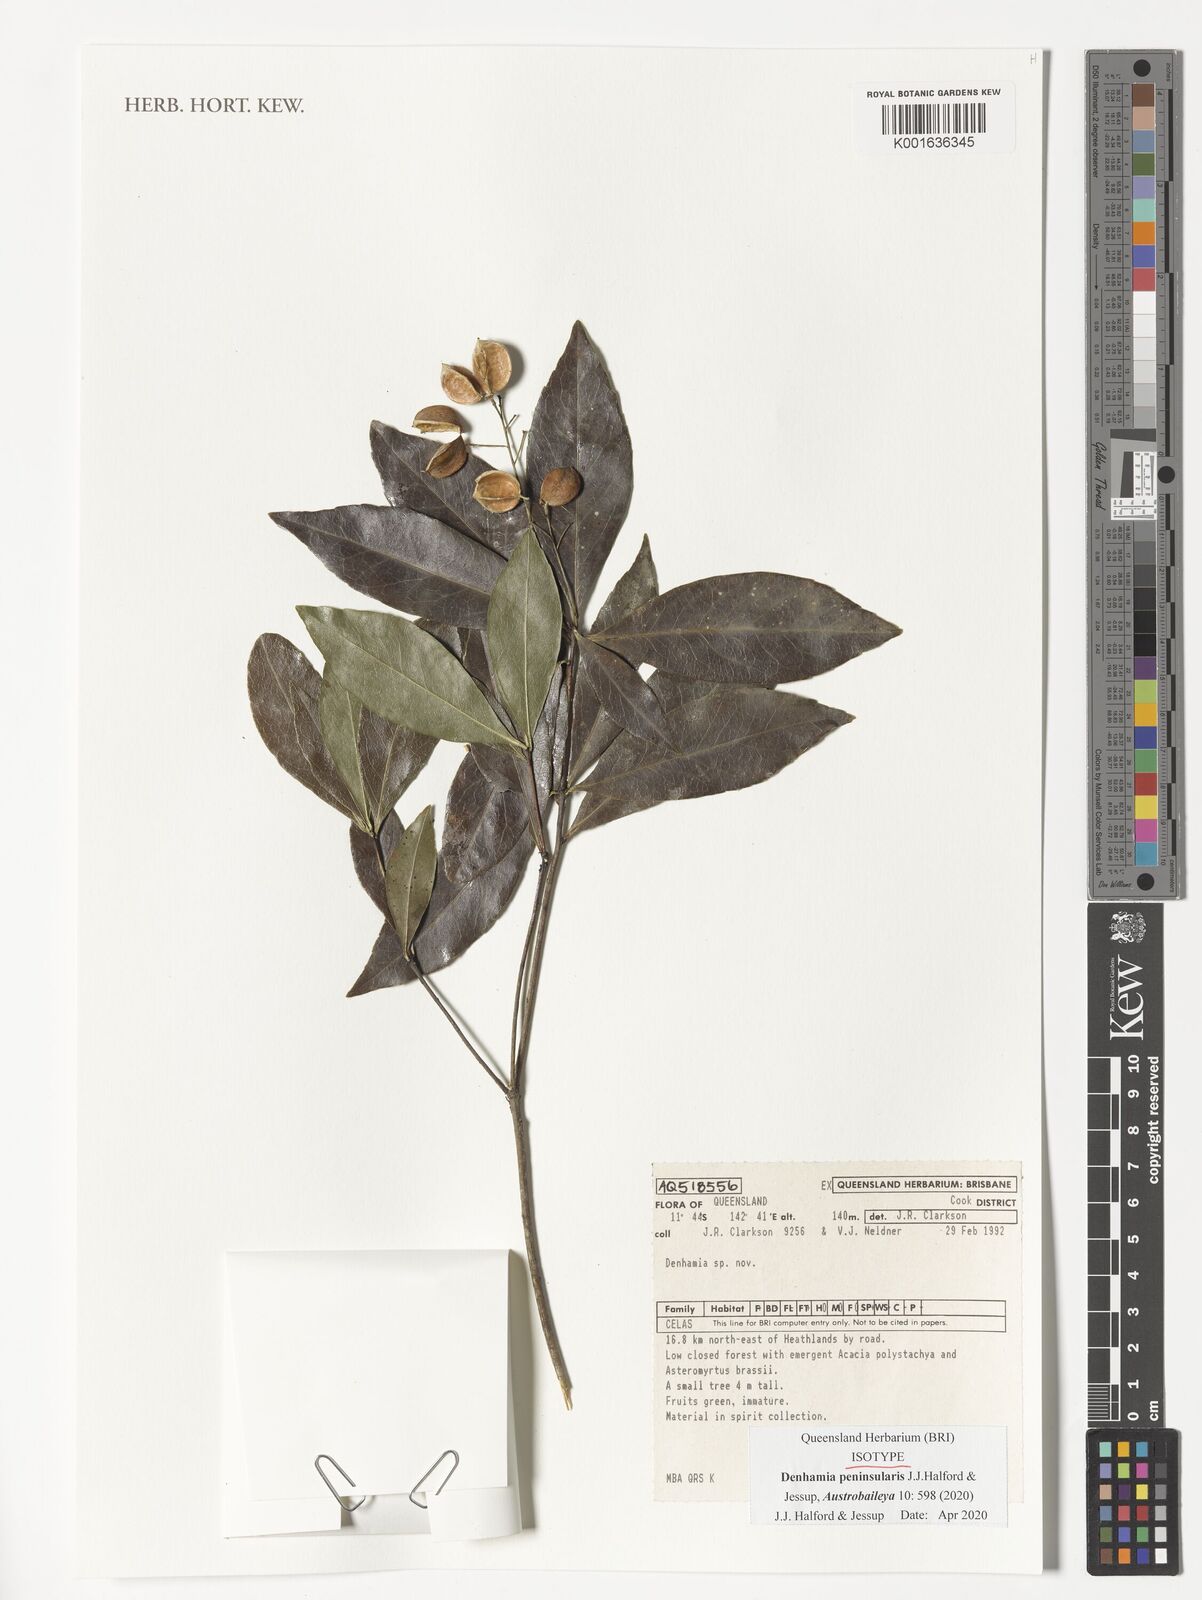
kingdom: Plantae
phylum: Tracheophyta
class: Magnoliopsida
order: Celastrales
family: Celastraceae
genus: Denhamia
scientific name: Denhamia
